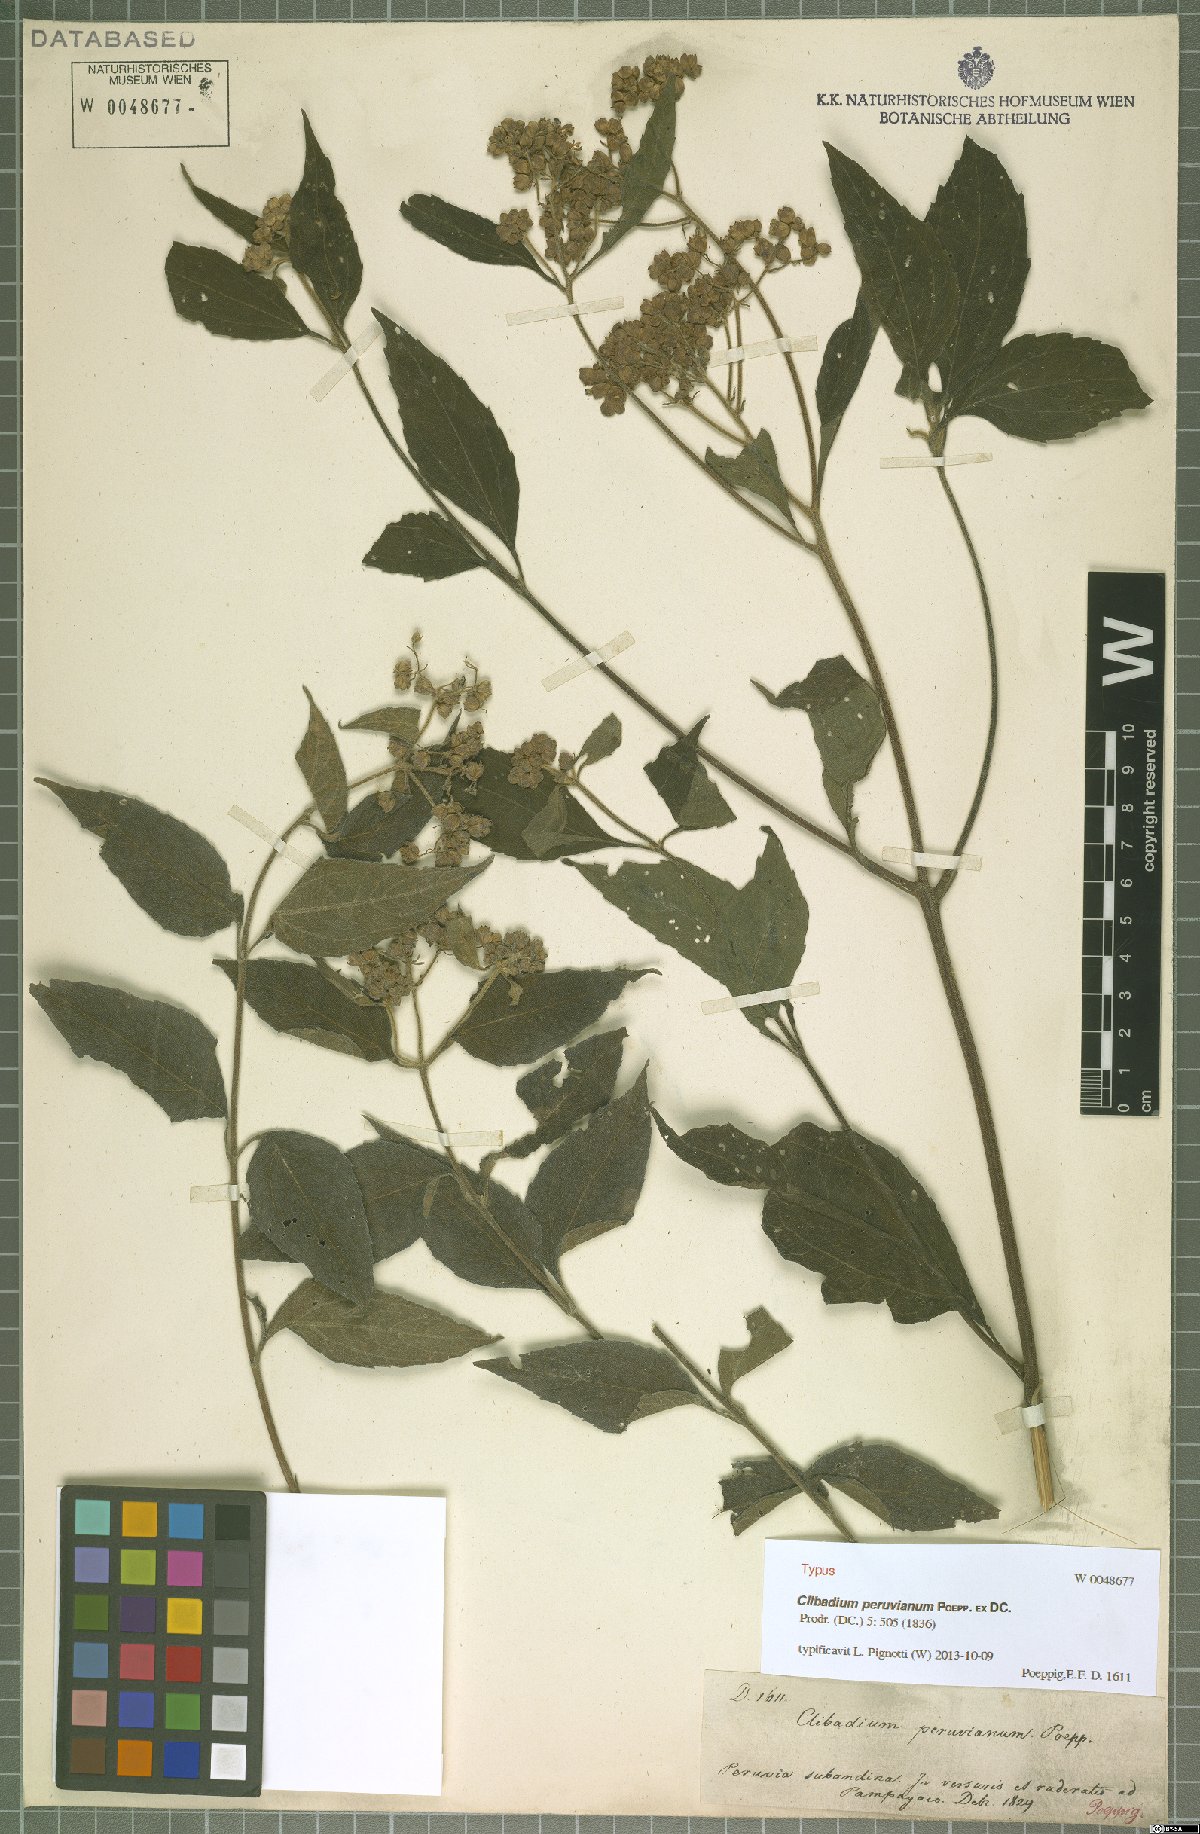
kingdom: Plantae
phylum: Tracheophyta
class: Magnoliopsida
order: Asterales
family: Asteraceae
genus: Clibadium
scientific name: Clibadium peruvianum
